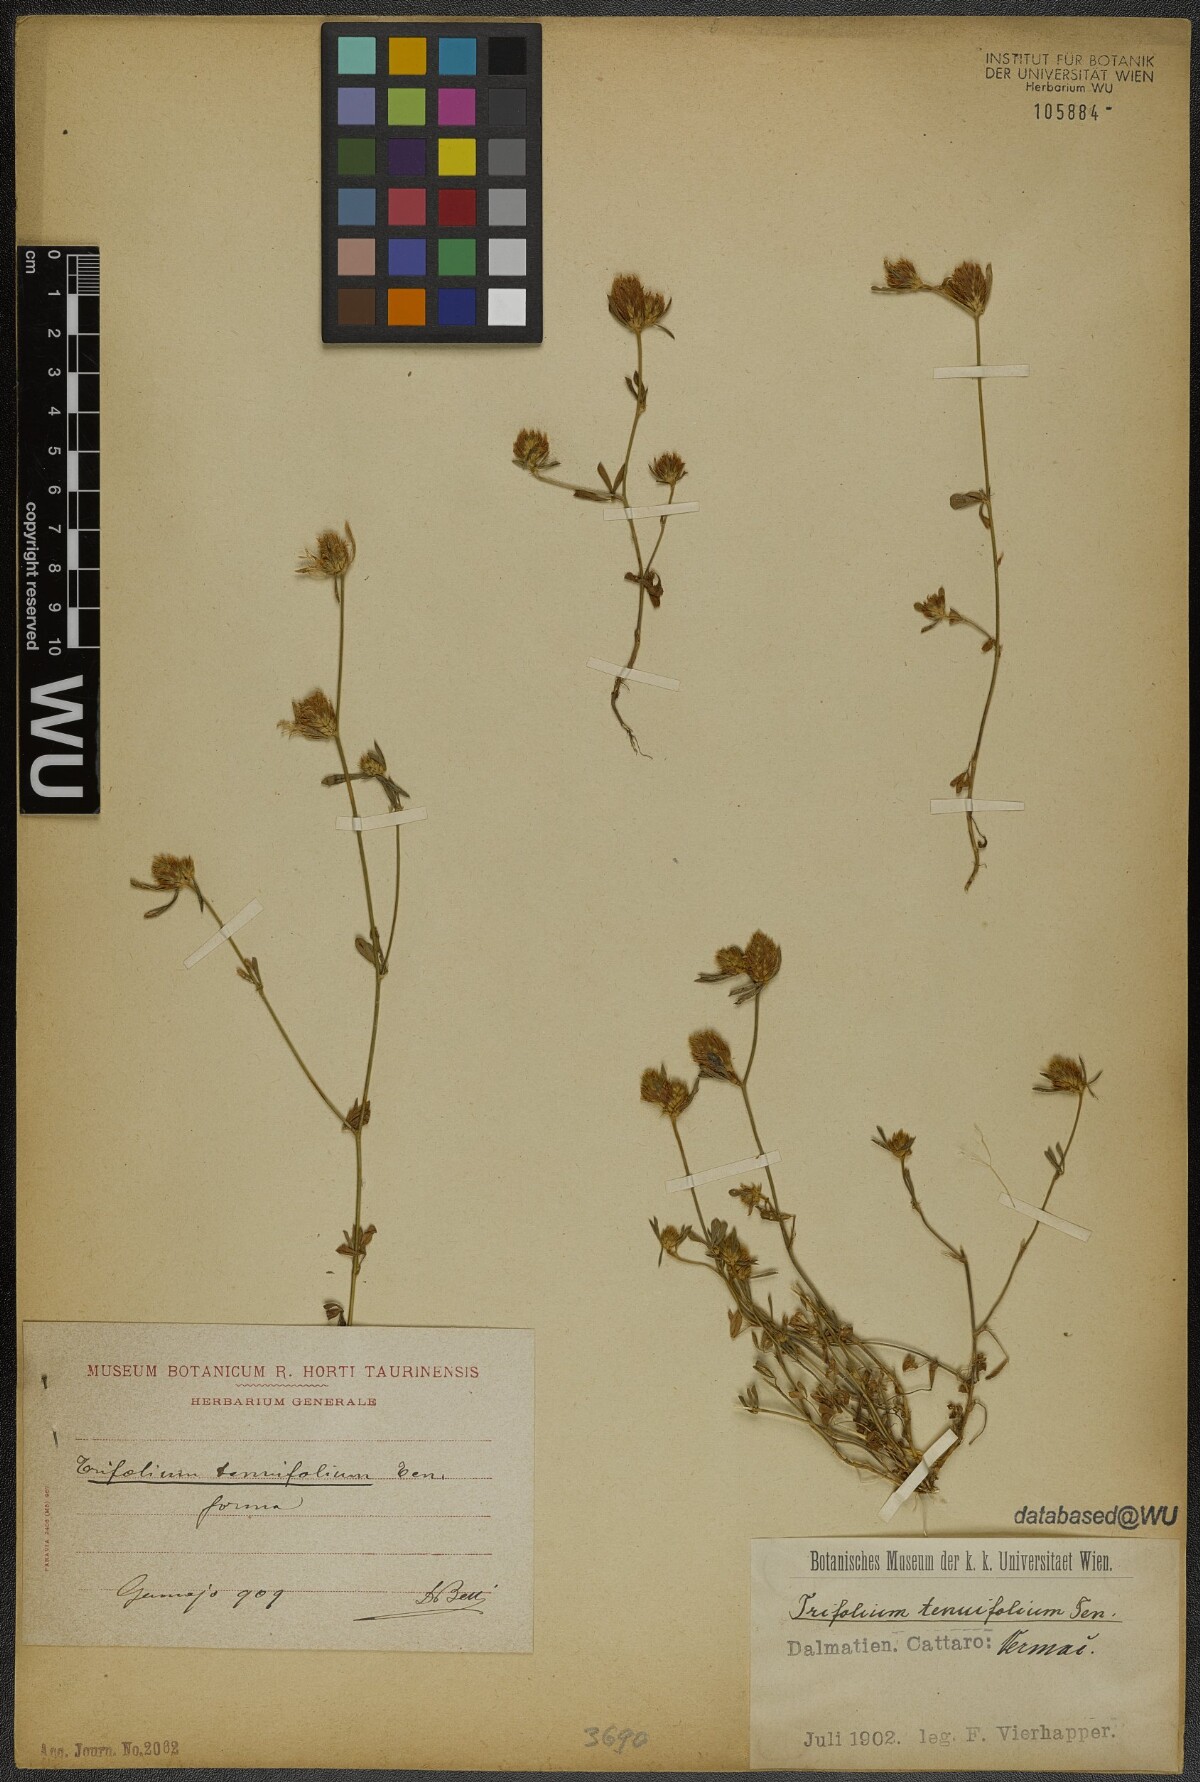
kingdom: Plantae
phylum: Tracheophyta
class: Magnoliopsida
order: Fabales
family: Fabaceae
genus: Trifolium
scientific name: Trifolium tenuifolium
